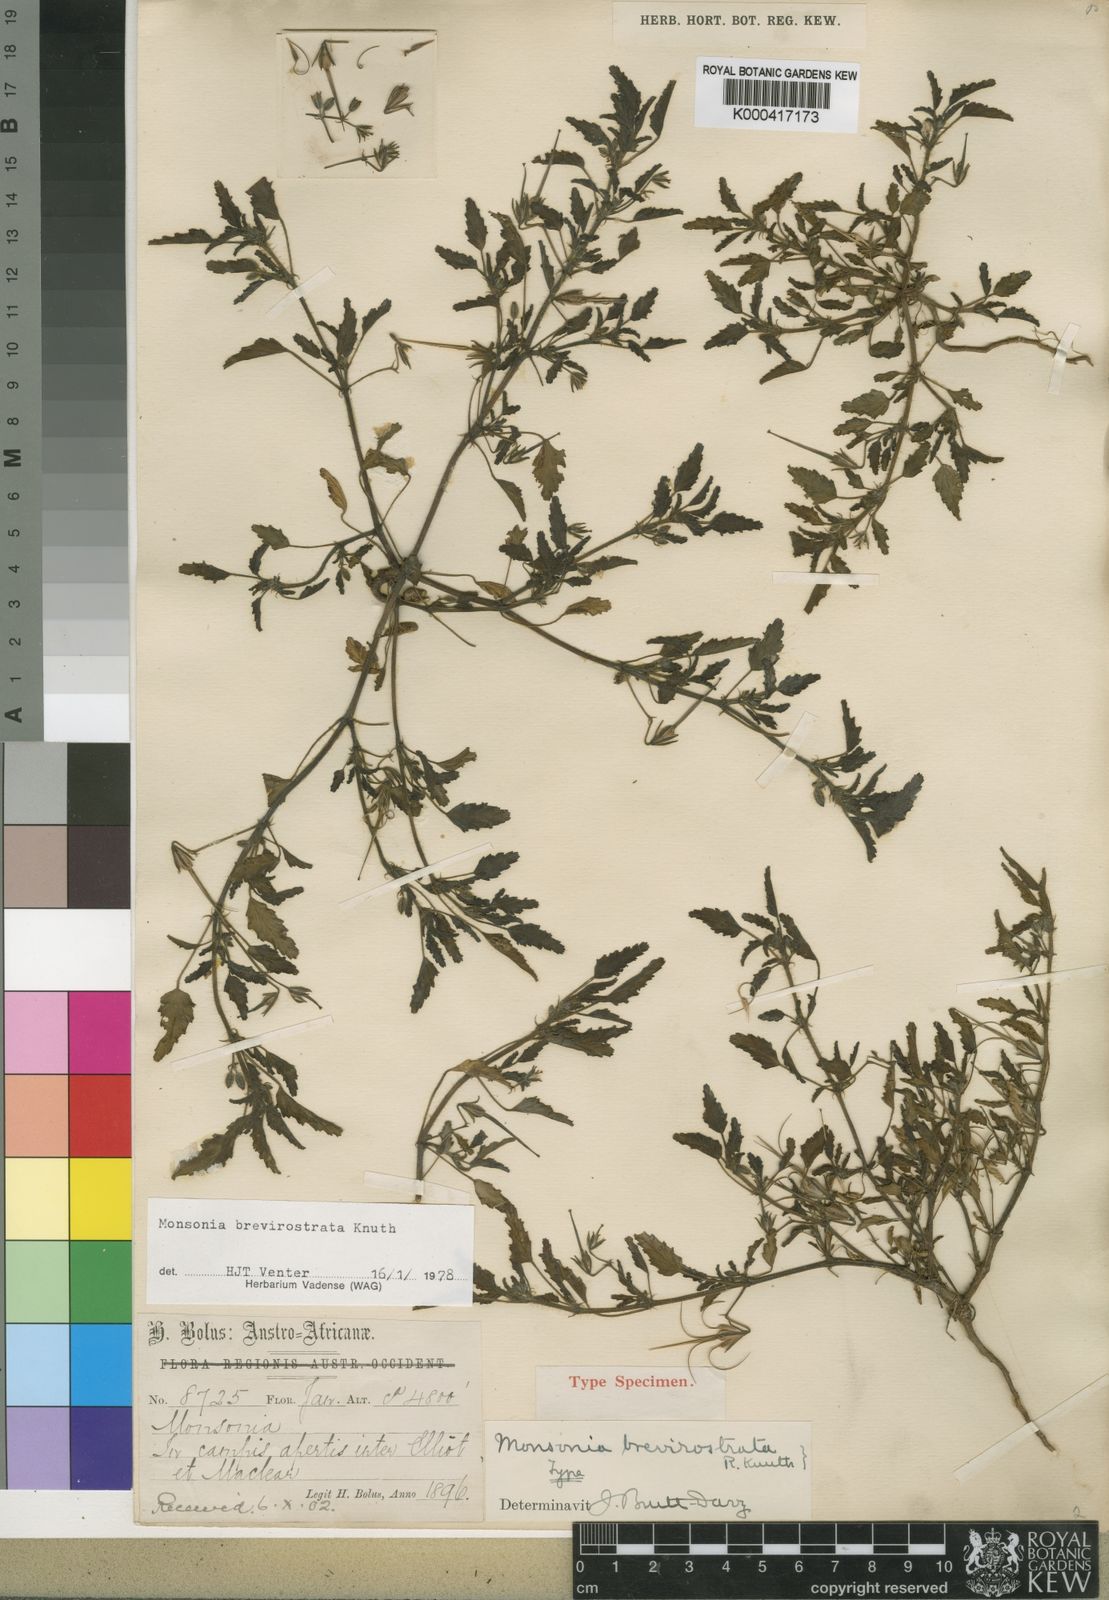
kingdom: Plantae
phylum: Tracheophyta
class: Magnoliopsida
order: Geraniales
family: Geraniaceae
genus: Monsonia
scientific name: Monsonia brevirostrata
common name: Short-fruited dysentery-herb
